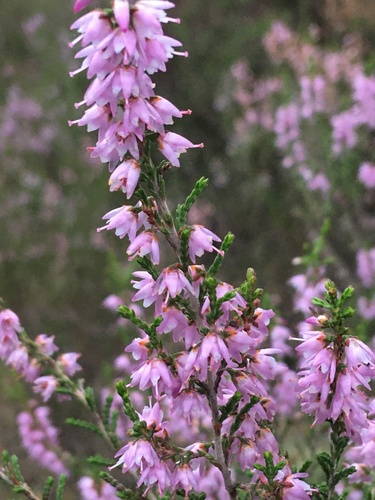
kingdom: Plantae
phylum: Tracheophyta
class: Magnoliopsida
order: Ericales
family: Ericaceae
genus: Calluna
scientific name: Calluna vulgaris
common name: Heather
